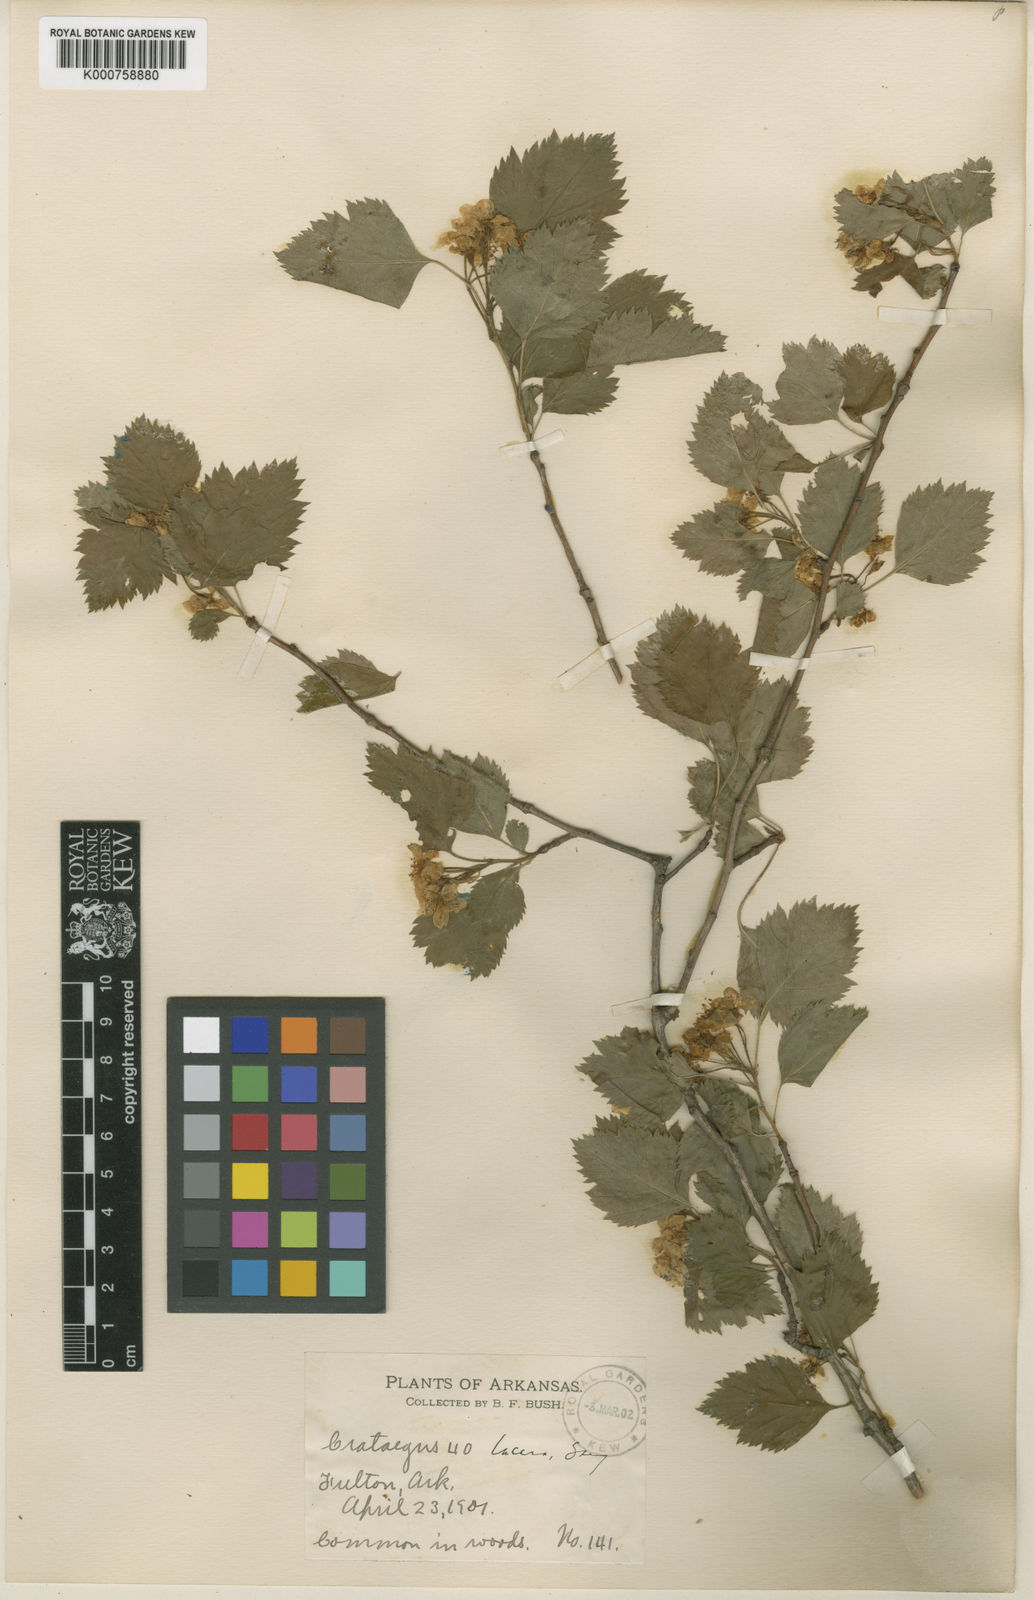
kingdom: Plantae
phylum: Tracheophyta
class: Magnoliopsida
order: Rosales
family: Rosaceae
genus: Crataegus
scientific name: Crataegus mollis
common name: Downy hawthorn
